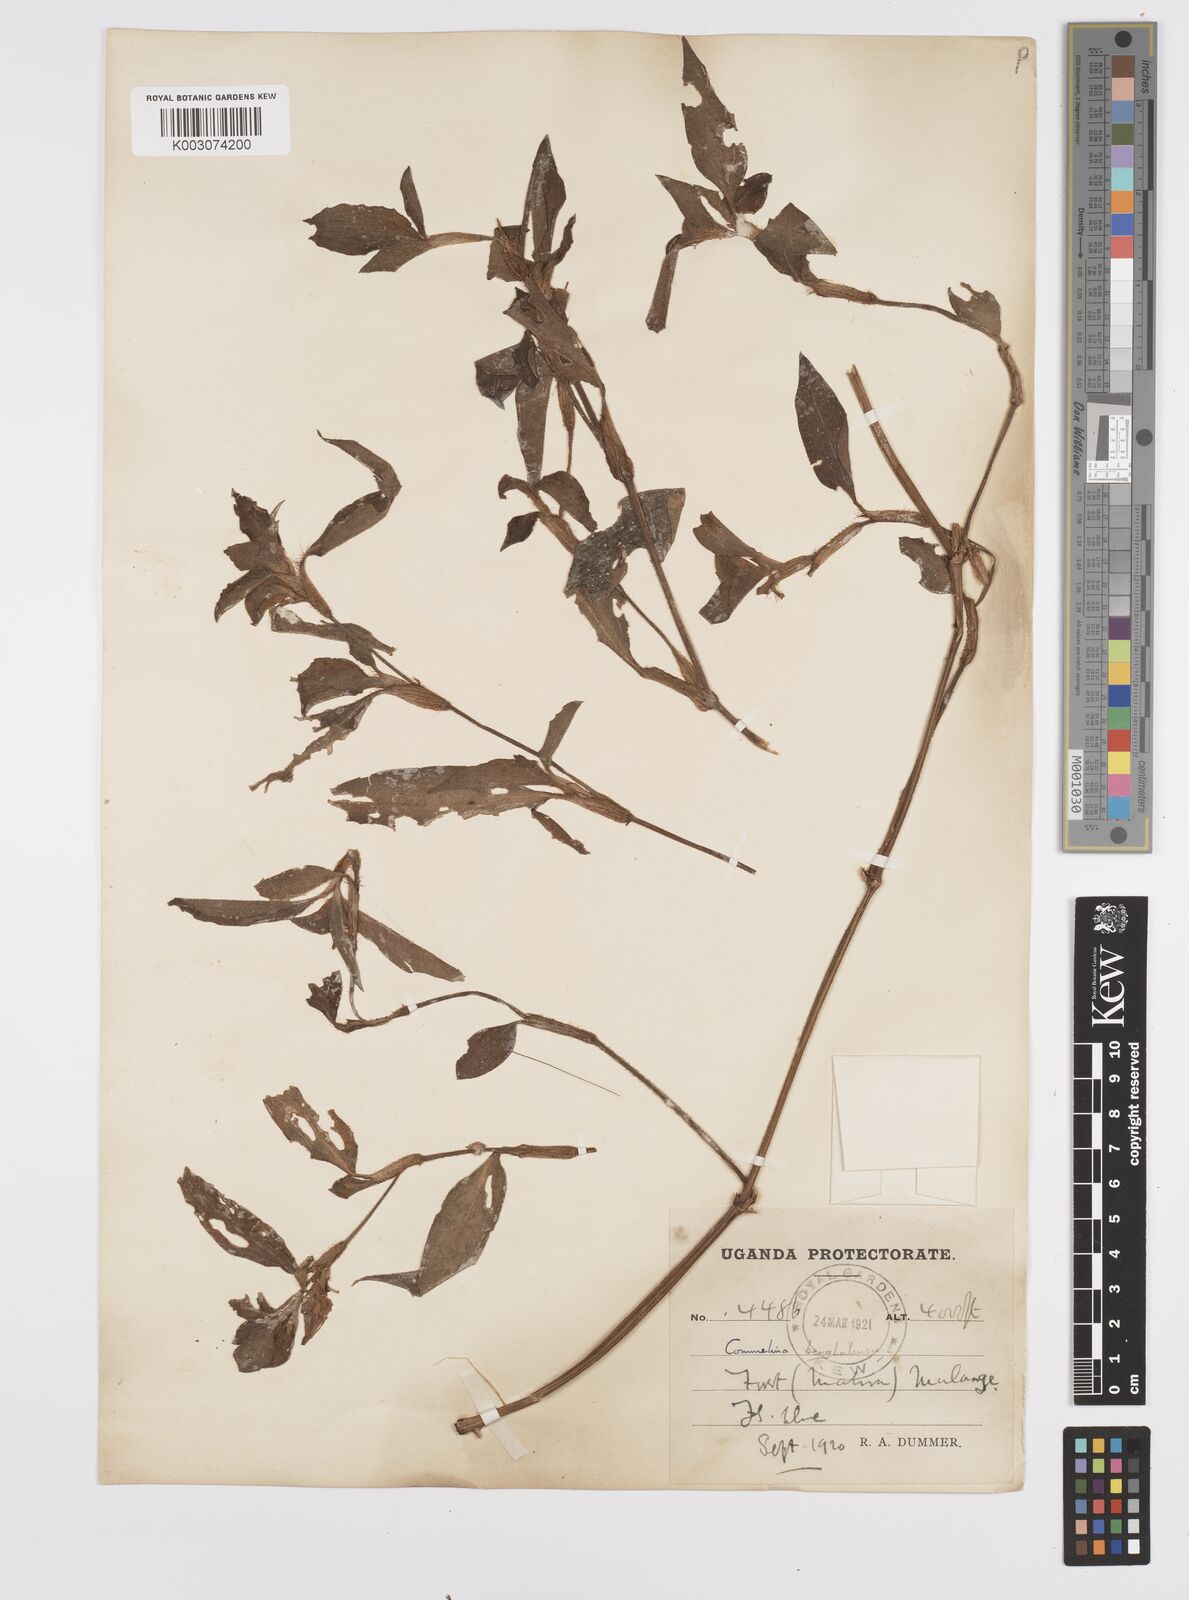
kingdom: Plantae
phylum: Tracheophyta
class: Liliopsida
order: Commelinales
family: Commelinaceae
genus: Commelina
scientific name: Commelina benghalensis
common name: Jio
